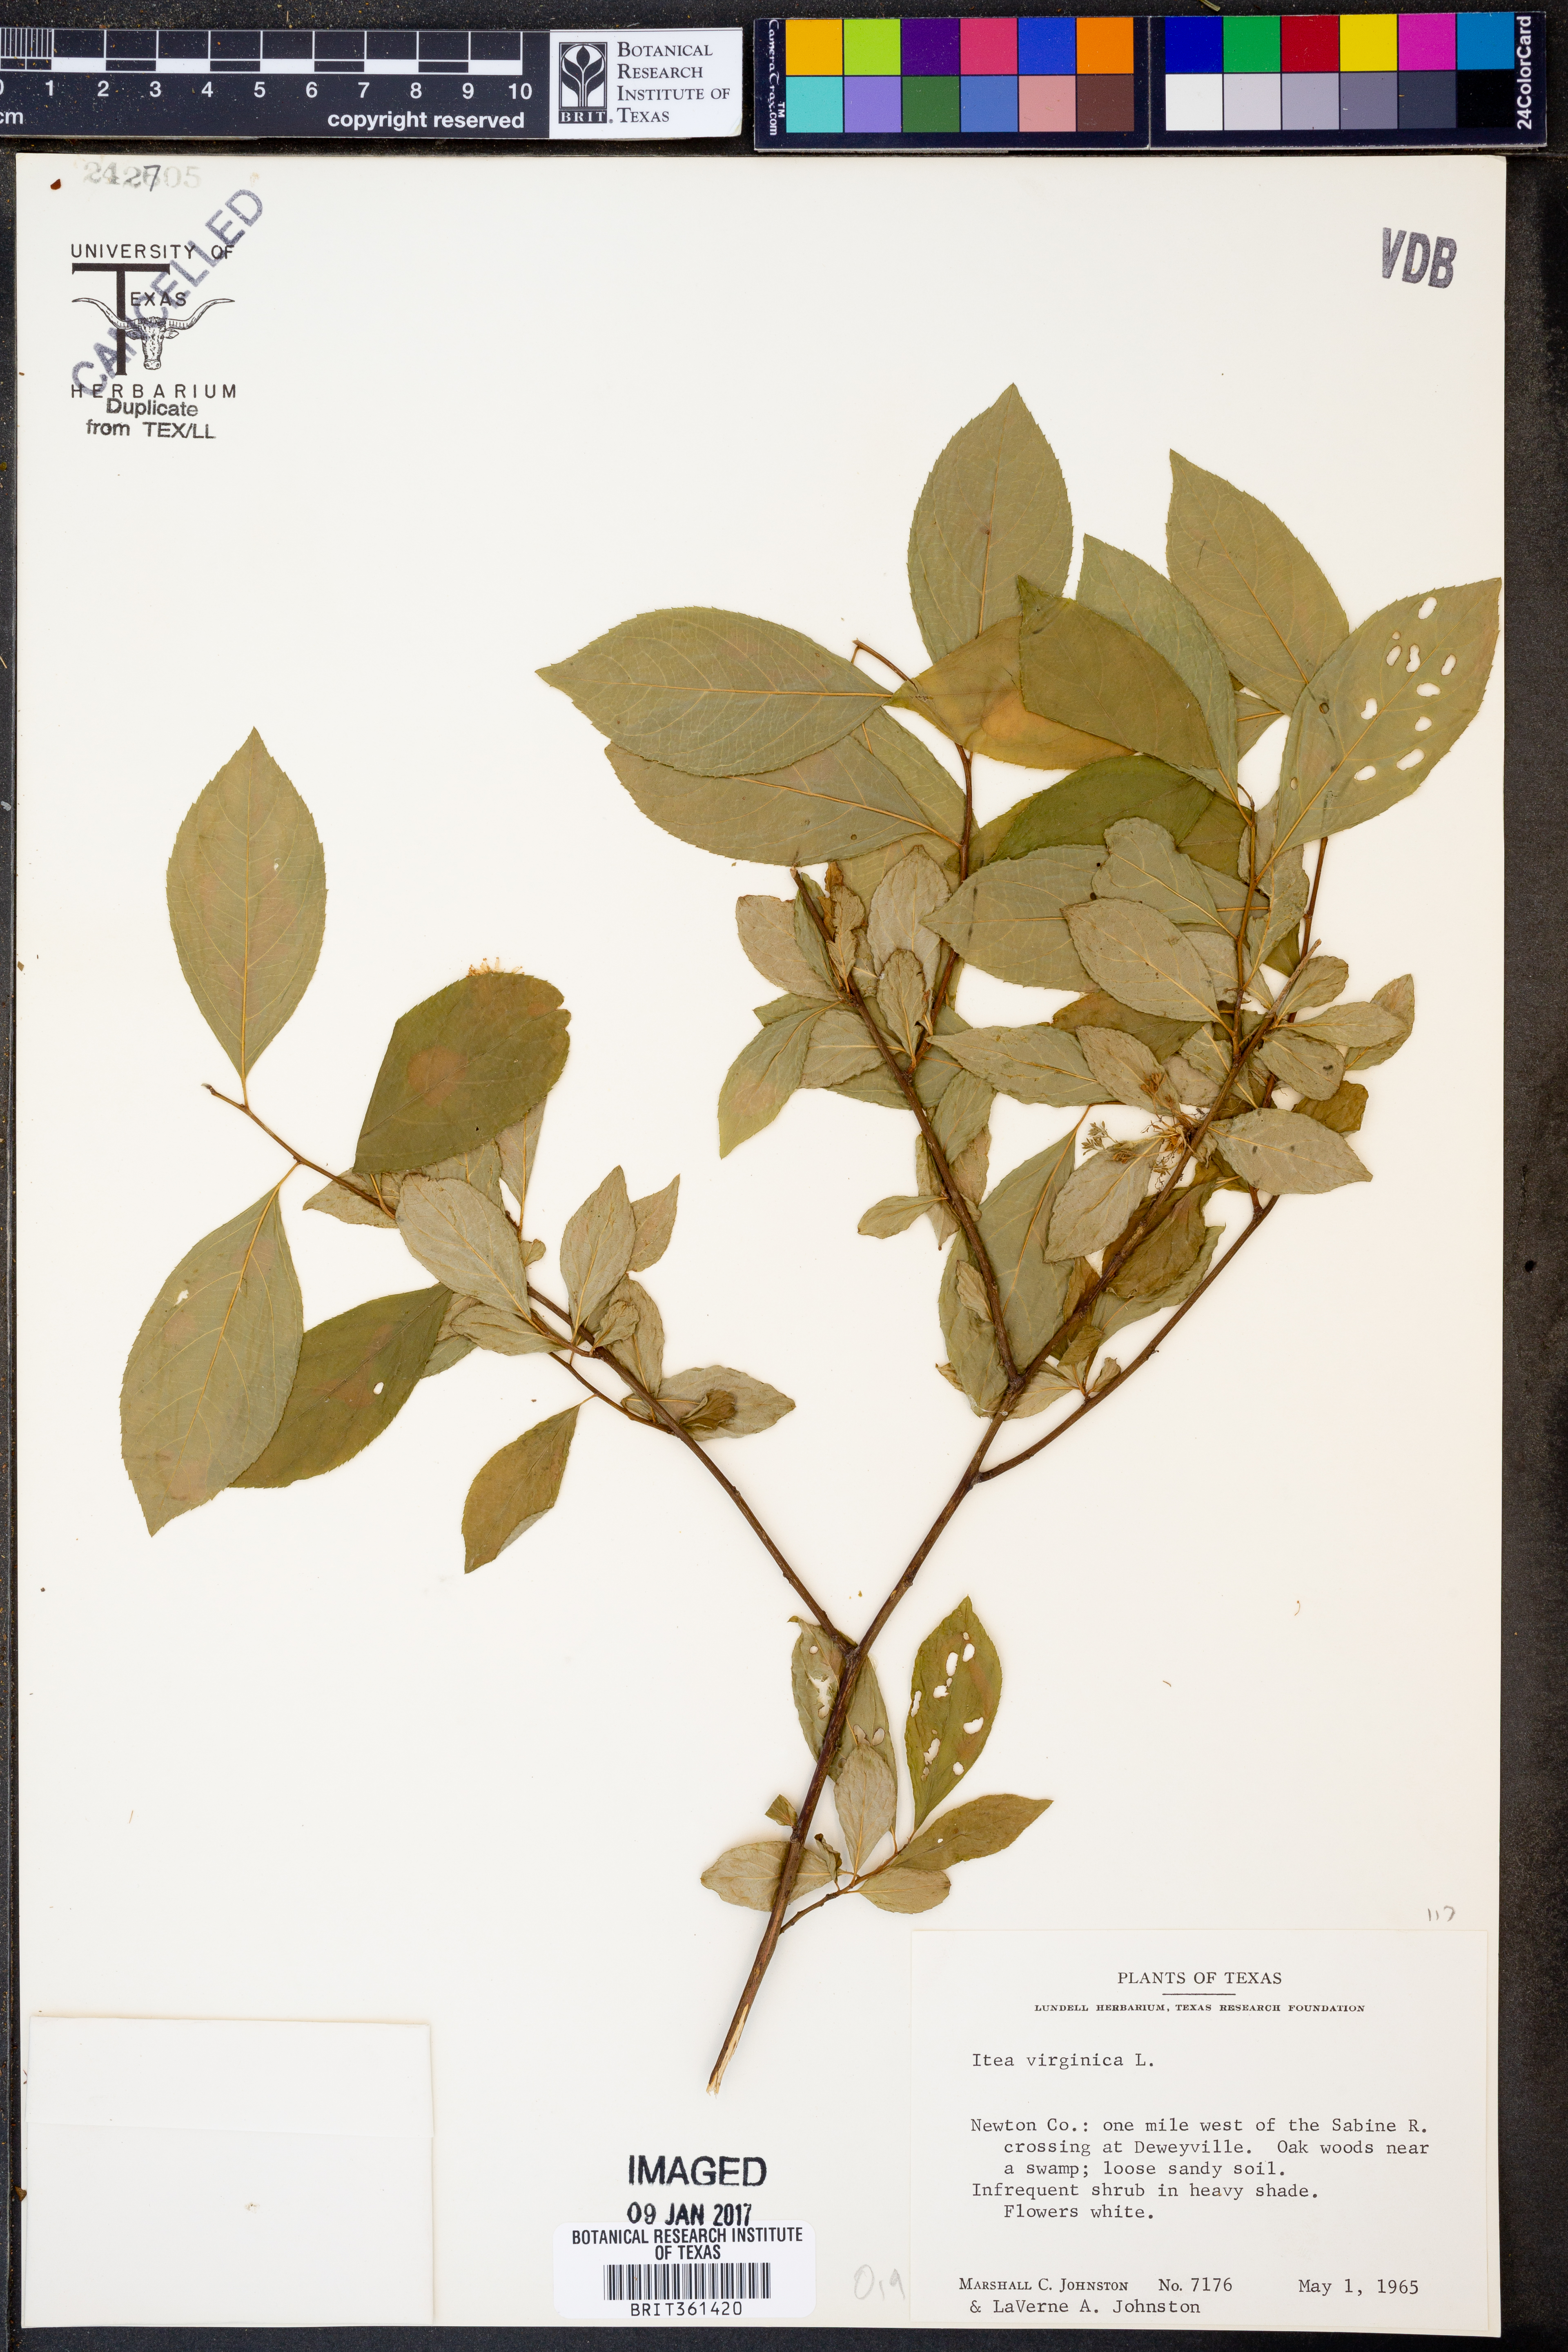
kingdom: Plantae
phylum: Tracheophyta
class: Magnoliopsida
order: Saxifragales
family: Iteaceae
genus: Itea
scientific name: Itea virginica
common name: Sweetspire
